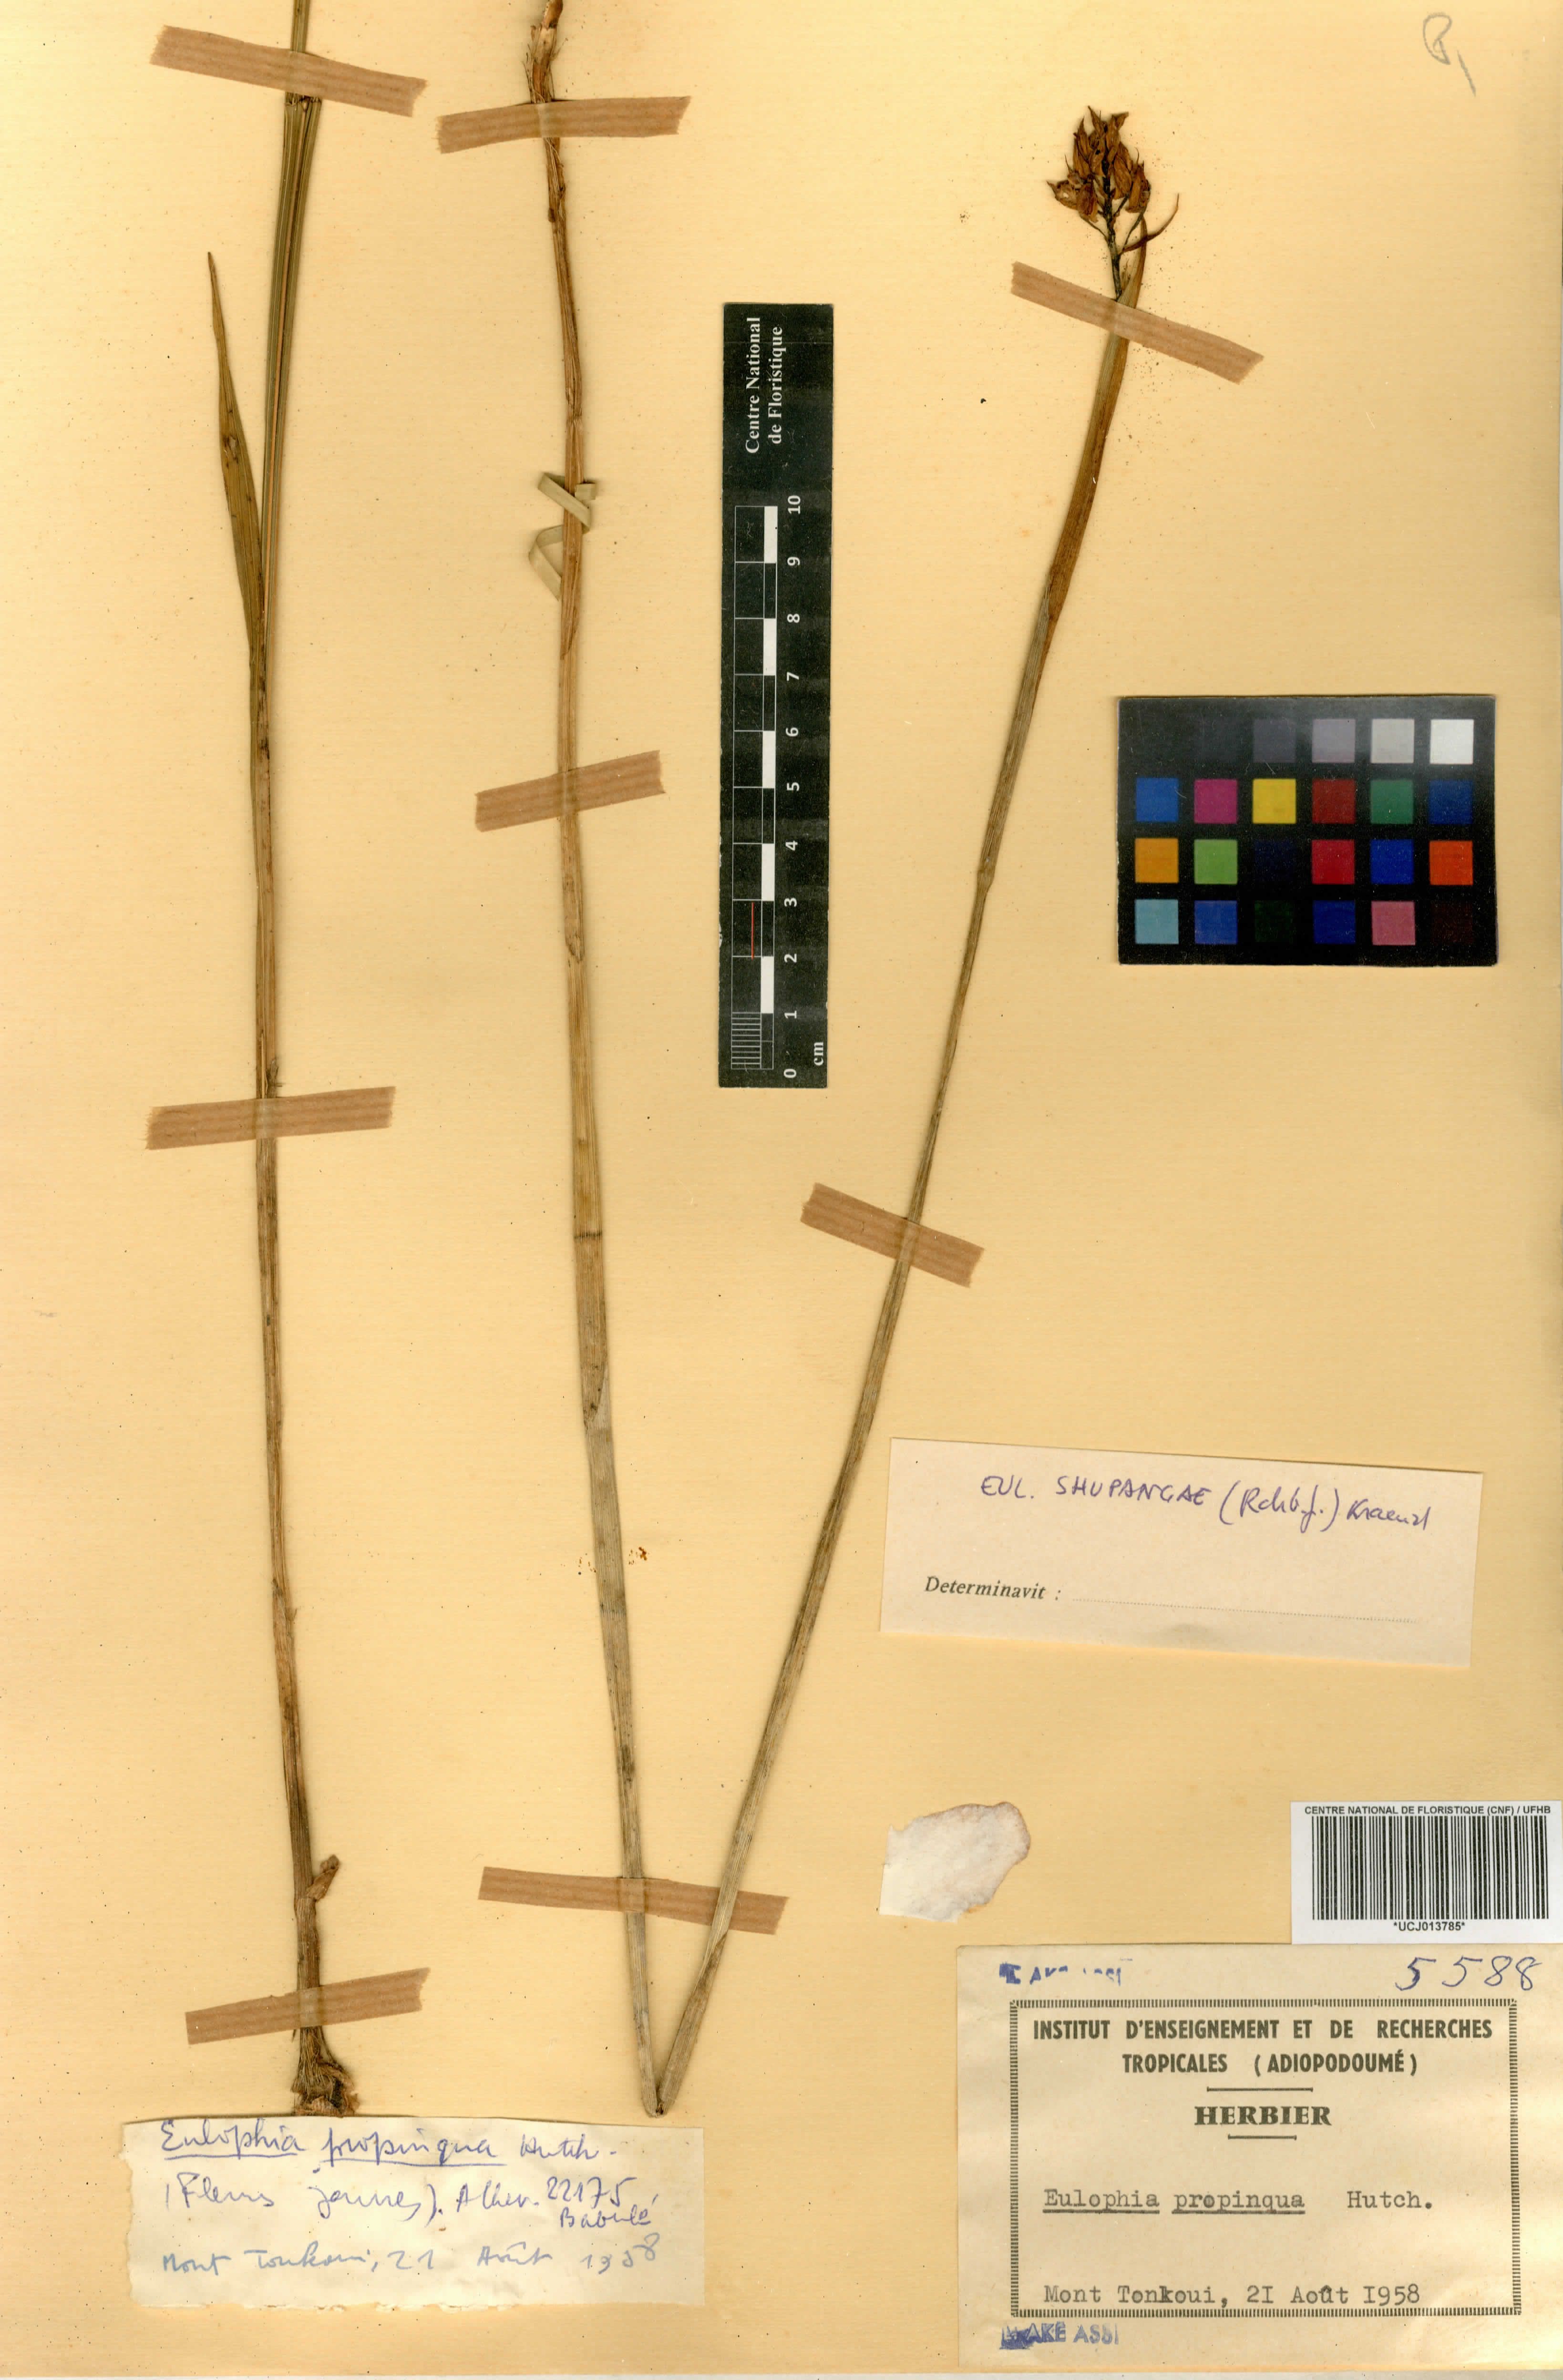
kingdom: Plantae
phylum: Tracheophyta
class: Liliopsida
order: Asparagales
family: Orchidaceae
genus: Eulophia
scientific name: Eulophia juncifolia
